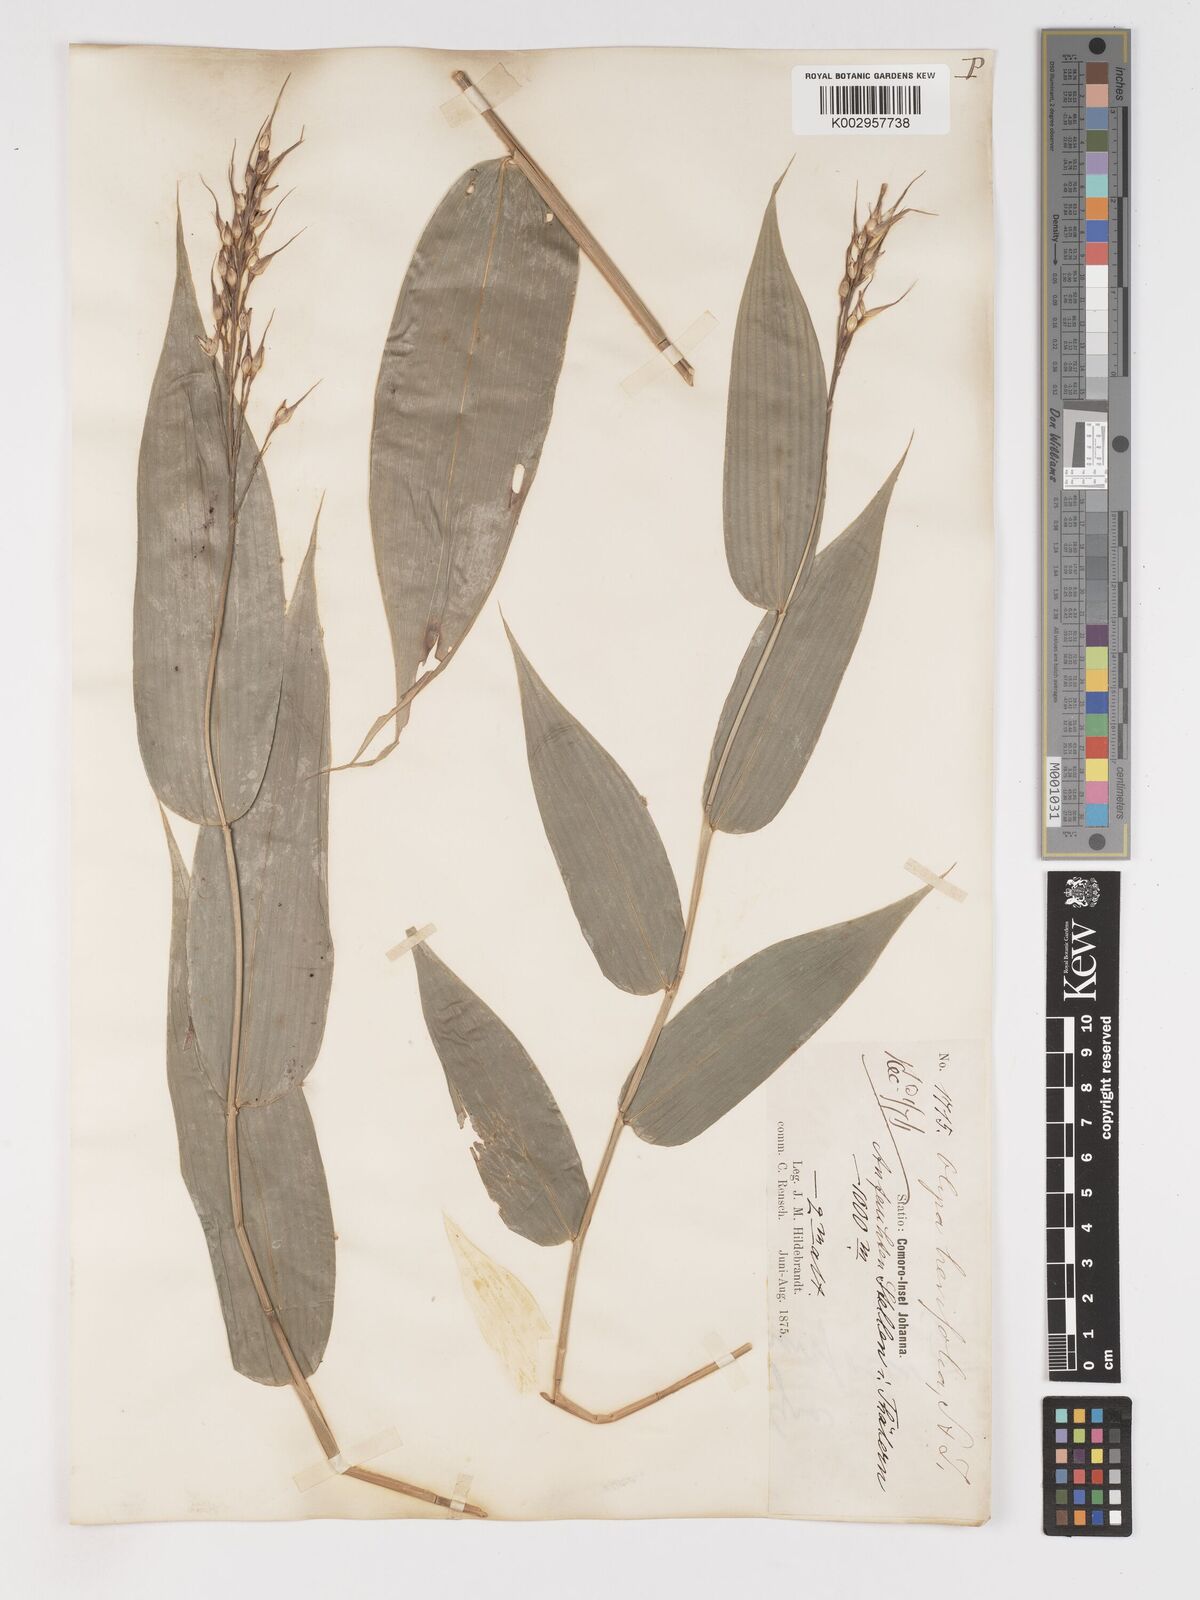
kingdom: Plantae
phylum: Tracheophyta
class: Liliopsida
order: Poales
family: Poaceae
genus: Olyra
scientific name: Olyra latifolia
